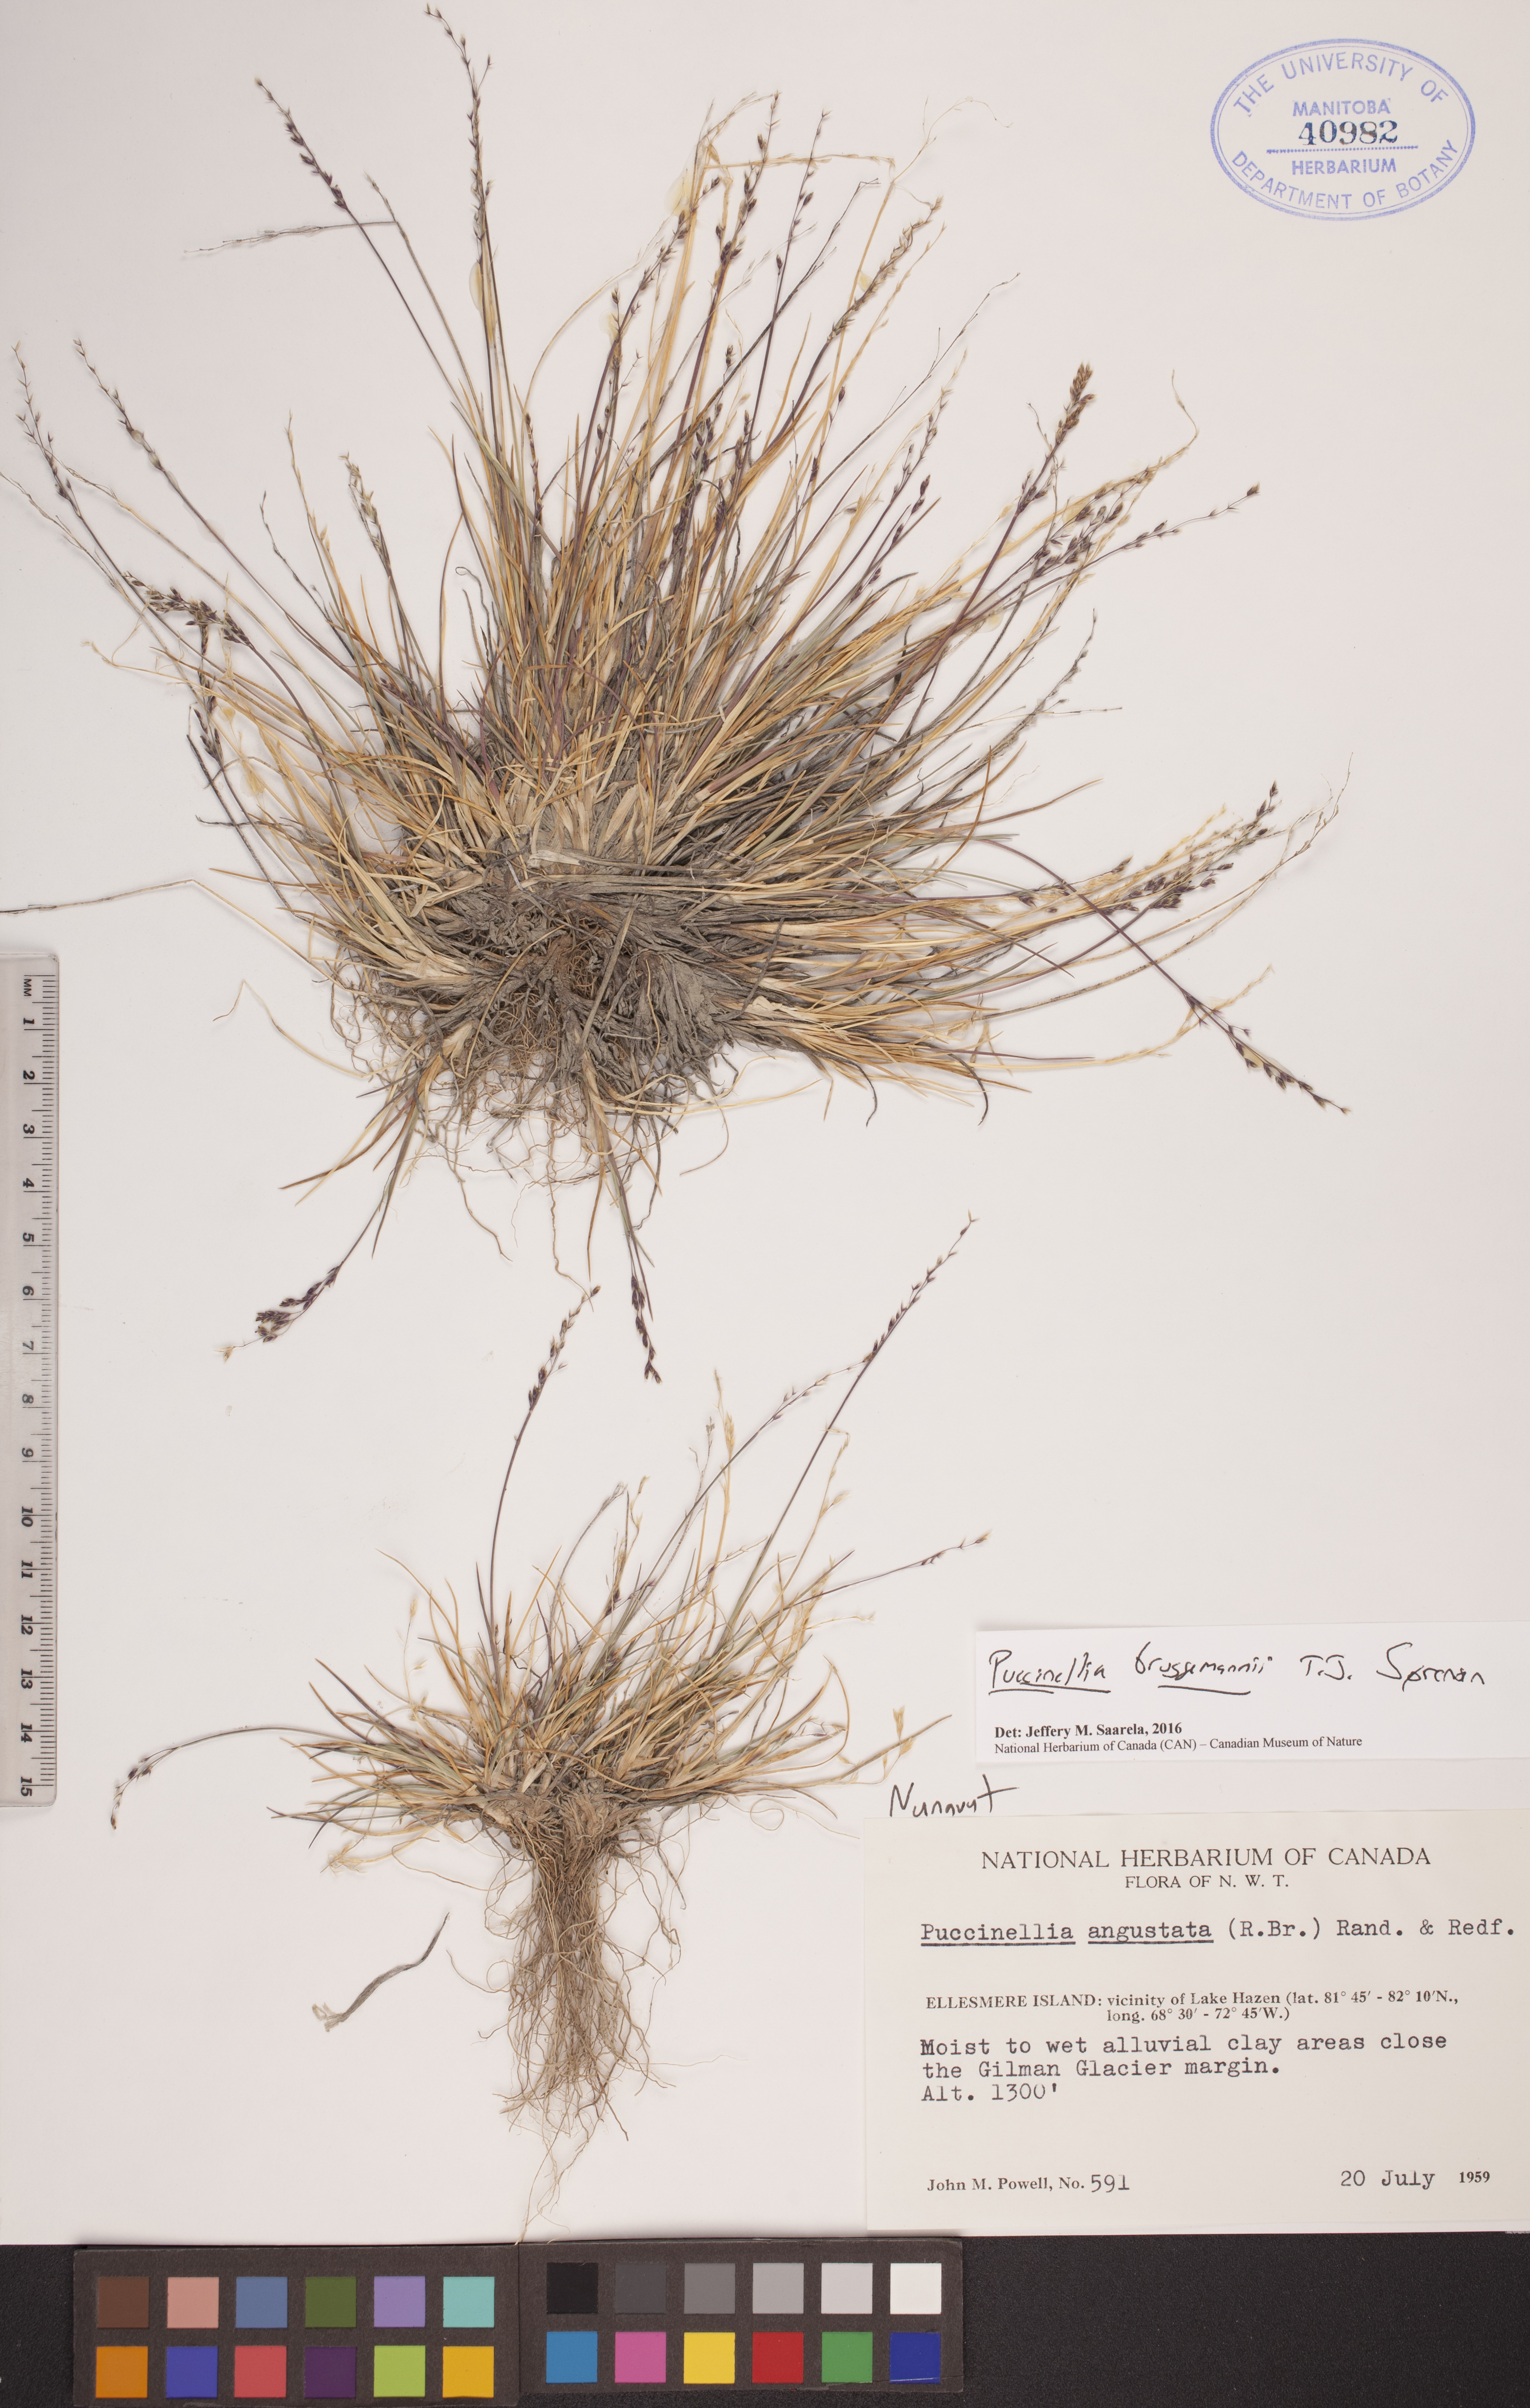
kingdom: Plantae
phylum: Tracheophyta
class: Liliopsida
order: Poales
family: Poaceae
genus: Puccinellia
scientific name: Puccinellia bruggemannii
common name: Bruggemann's alkaligrass
